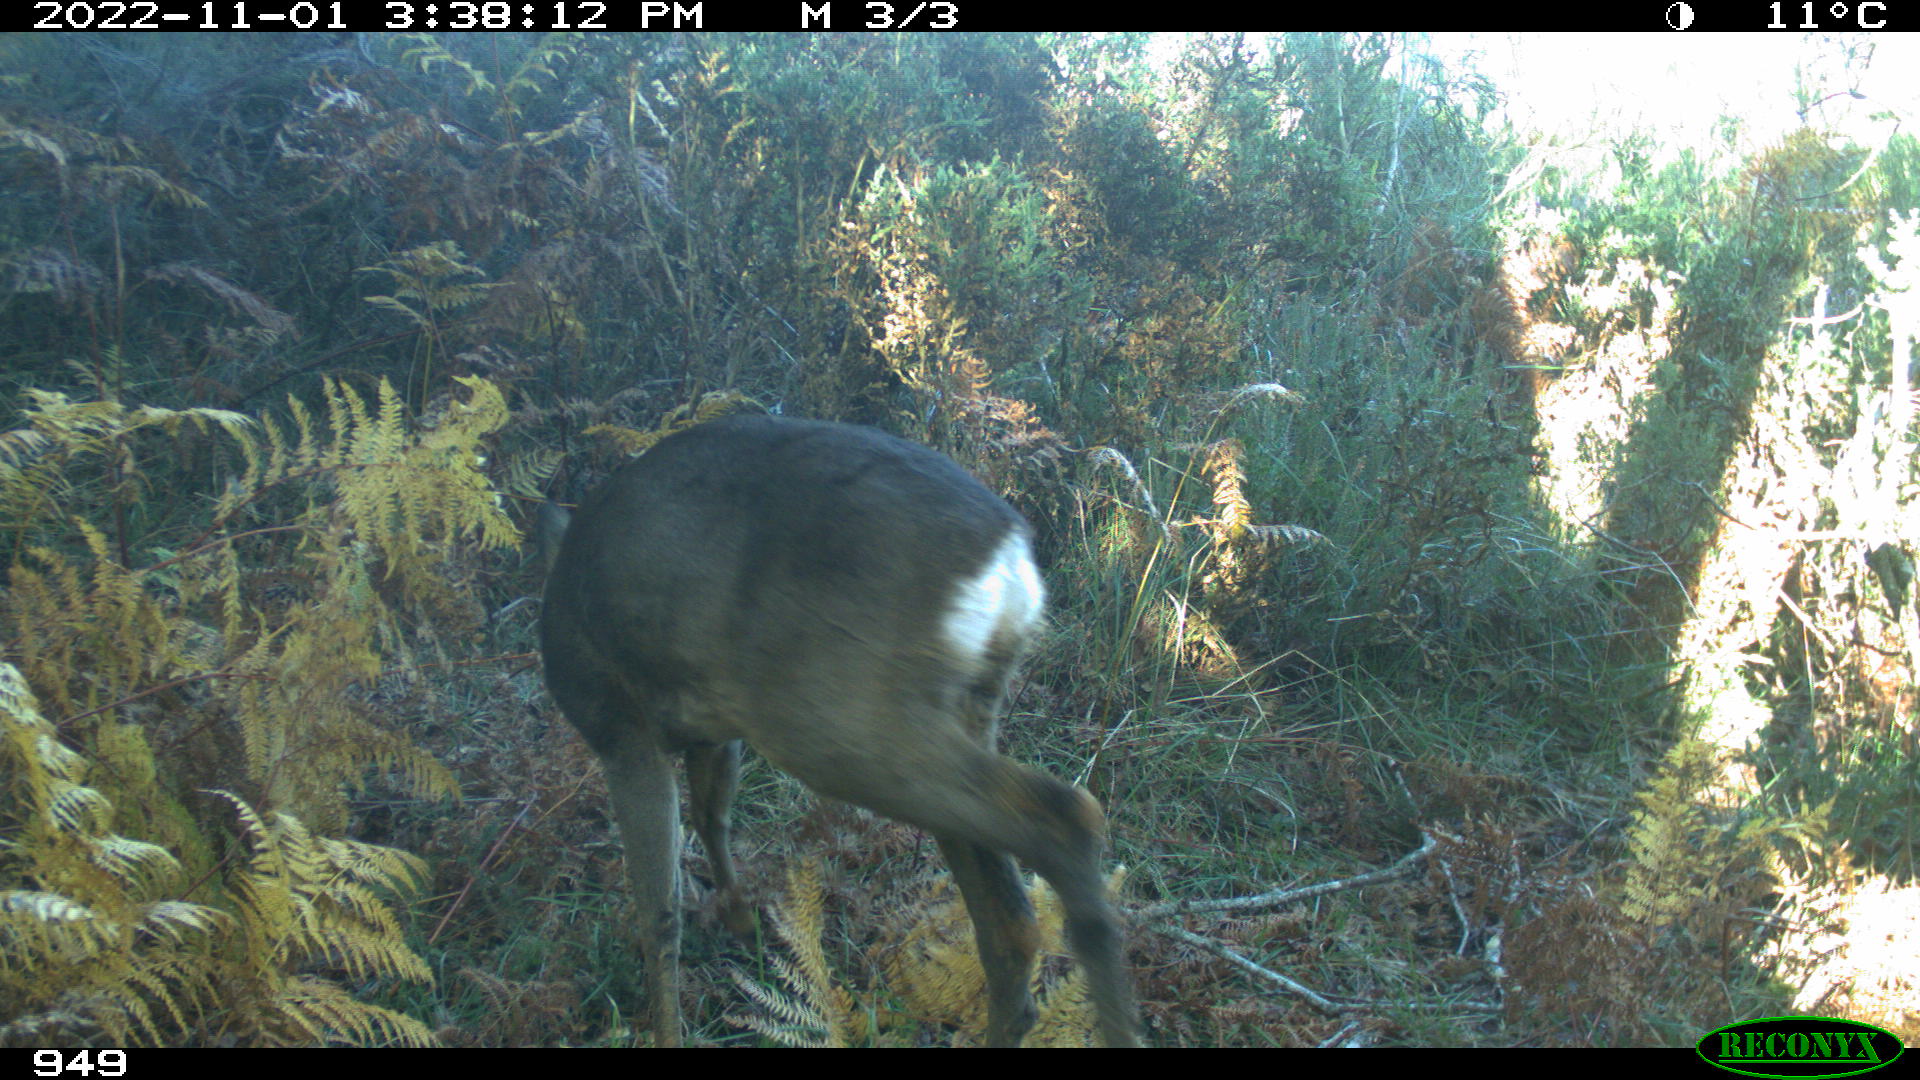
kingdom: Animalia
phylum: Chordata
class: Mammalia
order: Artiodactyla
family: Cervidae
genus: Capreolus
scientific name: Capreolus capreolus
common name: Western roe deer
